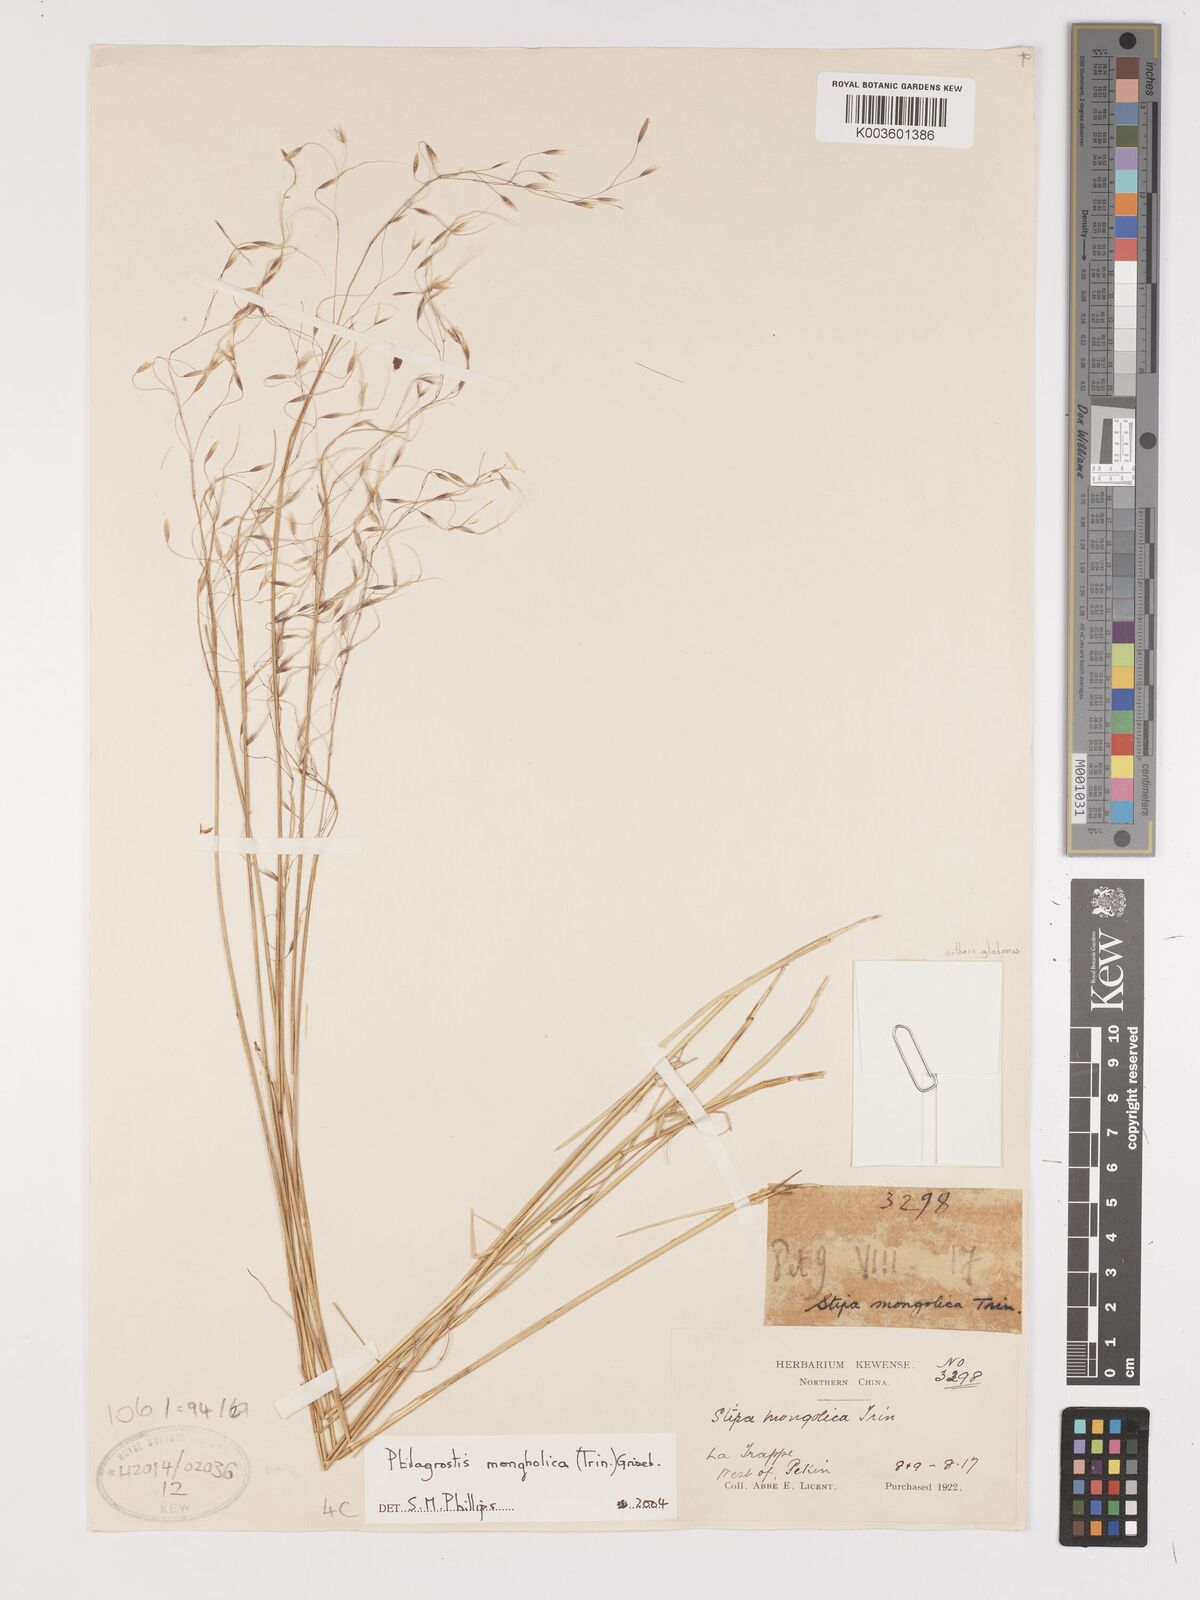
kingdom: Plantae
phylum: Tracheophyta
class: Liliopsida
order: Poales
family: Poaceae
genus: Ptilagrostis
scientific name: Ptilagrostis mongholica
